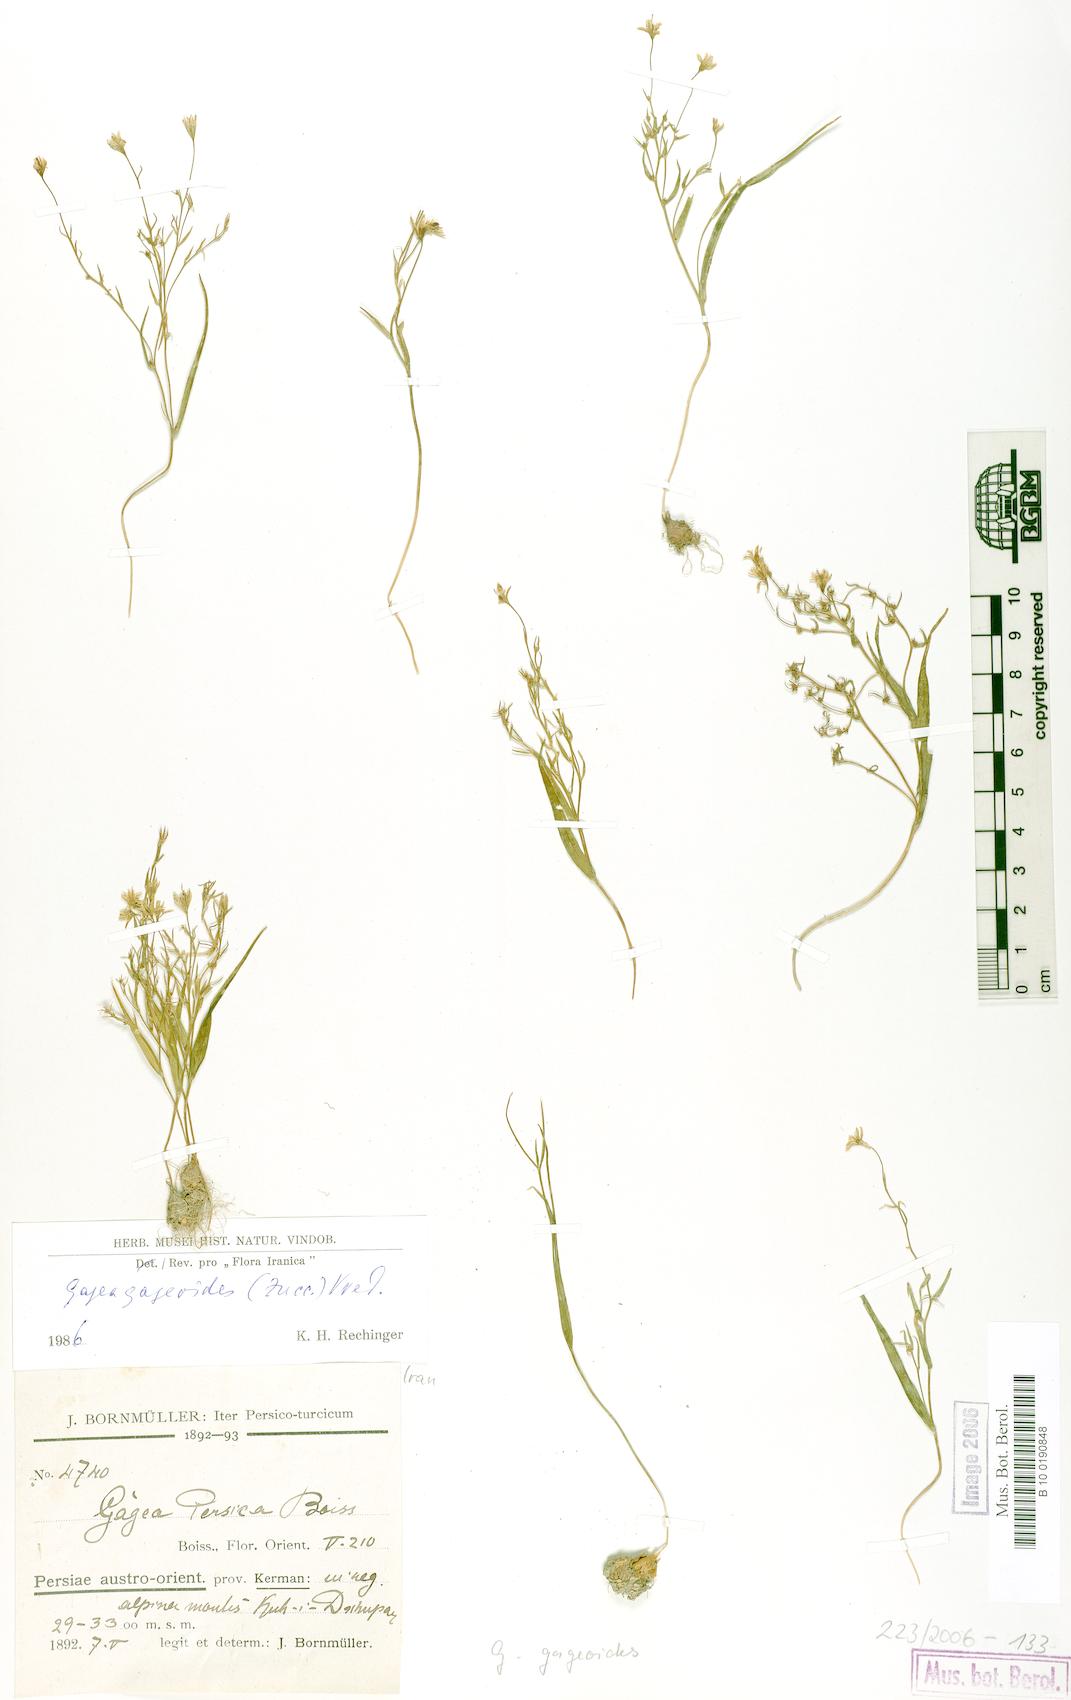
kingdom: Plantae
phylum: Tracheophyta
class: Liliopsida
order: Liliales
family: Liliaceae
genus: Gagea
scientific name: Gagea gageoides
